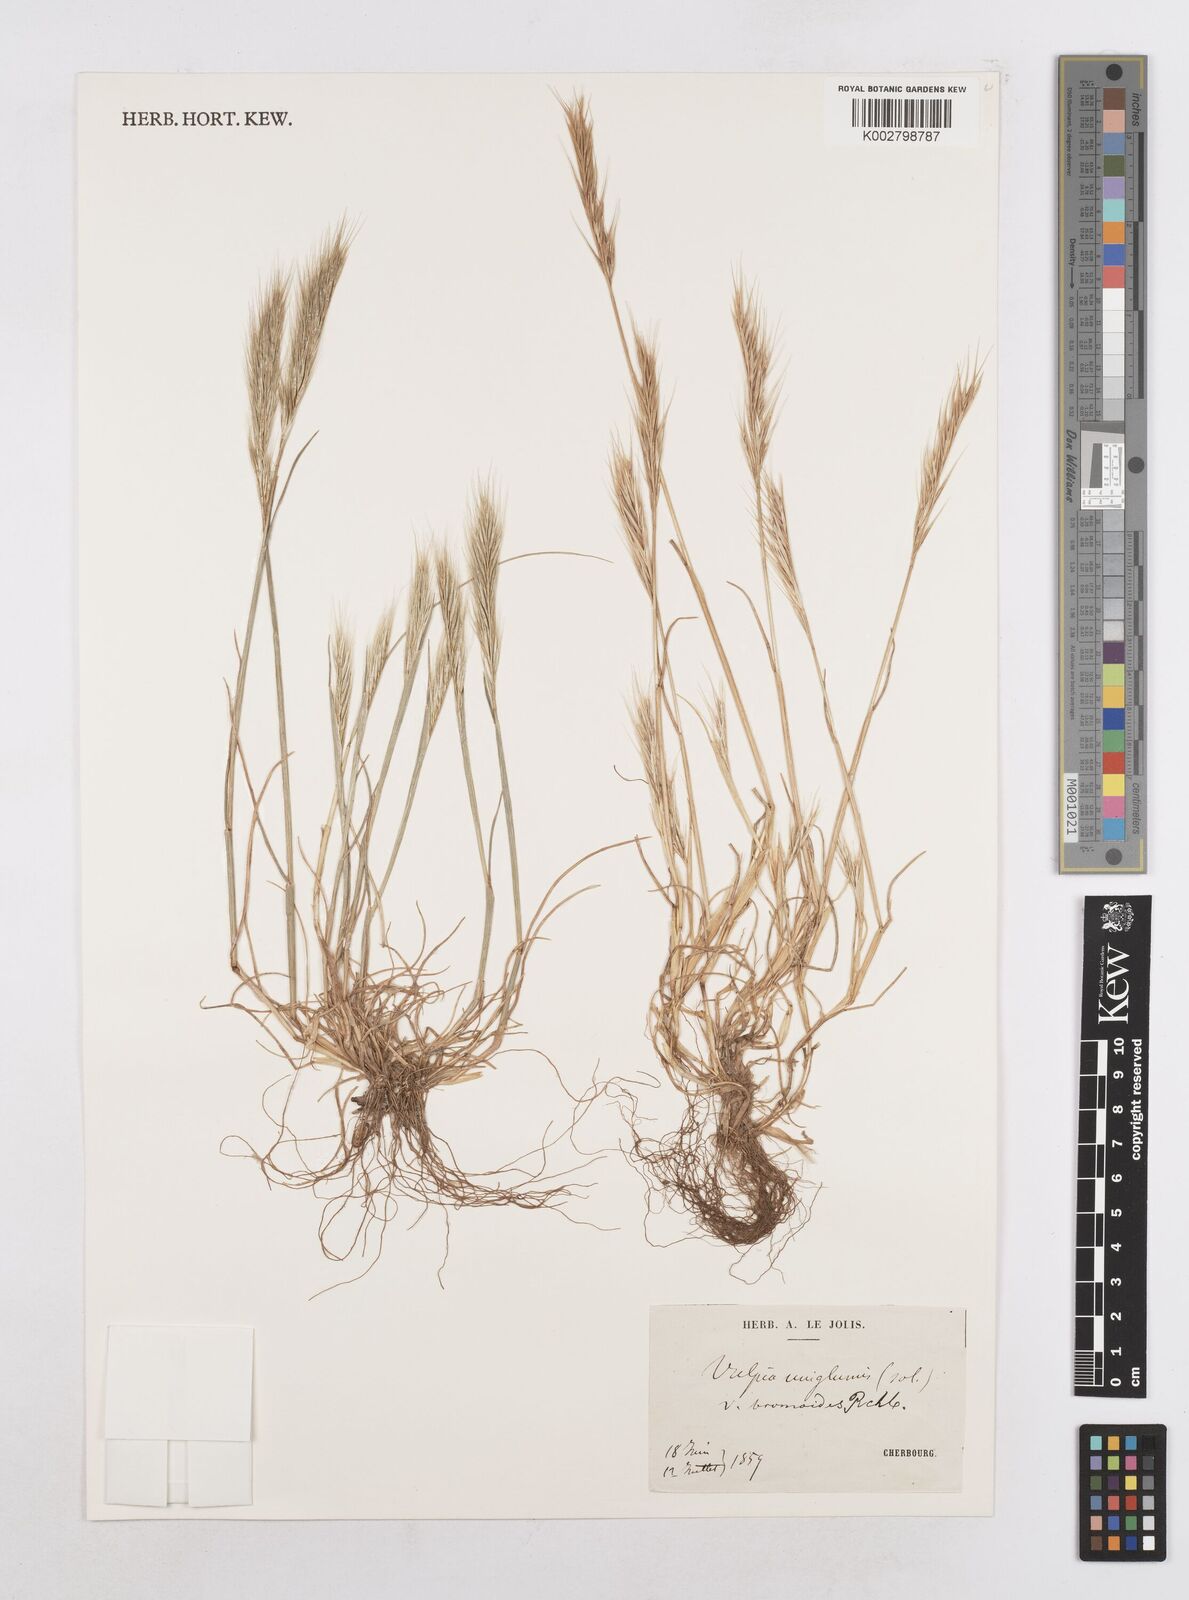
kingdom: Plantae
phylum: Tracheophyta
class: Liliopsida
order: Poales
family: Poaceae
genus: Festuca
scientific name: Festuca fasciculata
